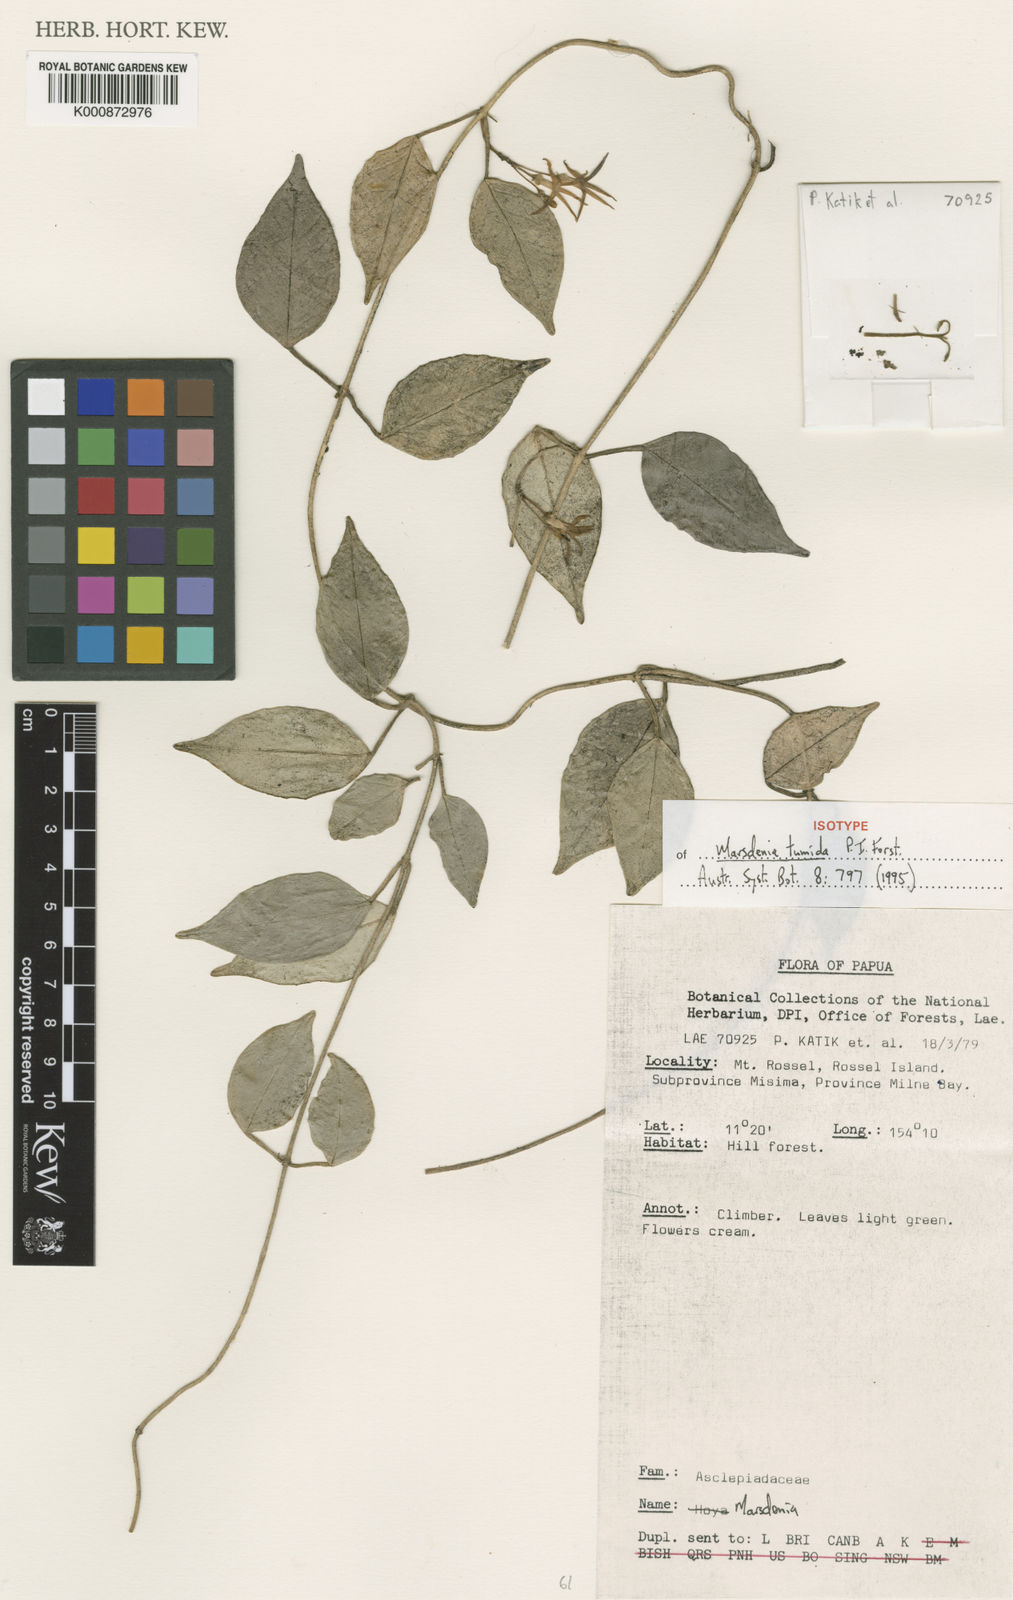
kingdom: Plantae
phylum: Tracheophyta
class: Magnoliopsida
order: Gentianales
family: Apocynaceae
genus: Leichhardtia
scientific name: Leichhardtia tumida
